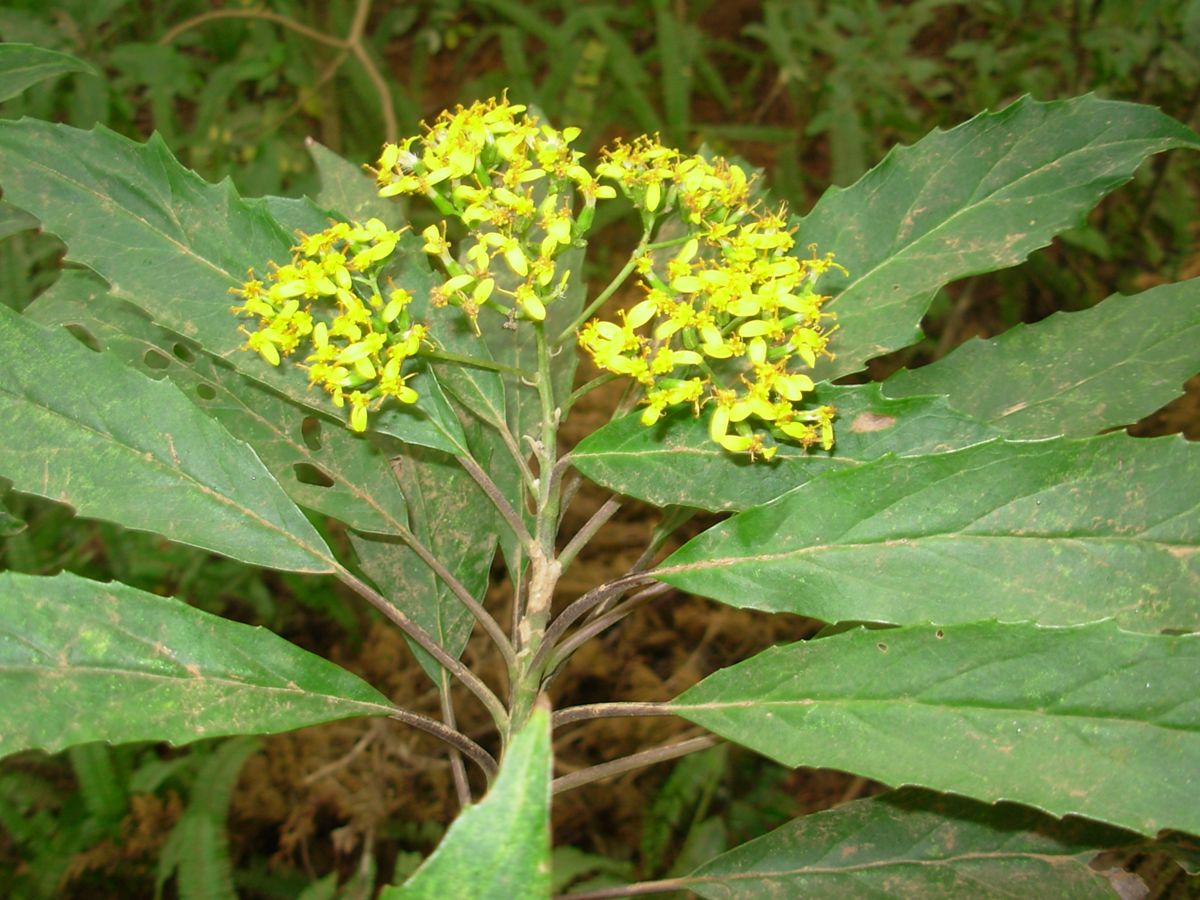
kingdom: Plantae
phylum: Tracheophyta
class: Magnoliopsida
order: Asterales
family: Asteraceae
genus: Roldana
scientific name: Roldana schaffneri
